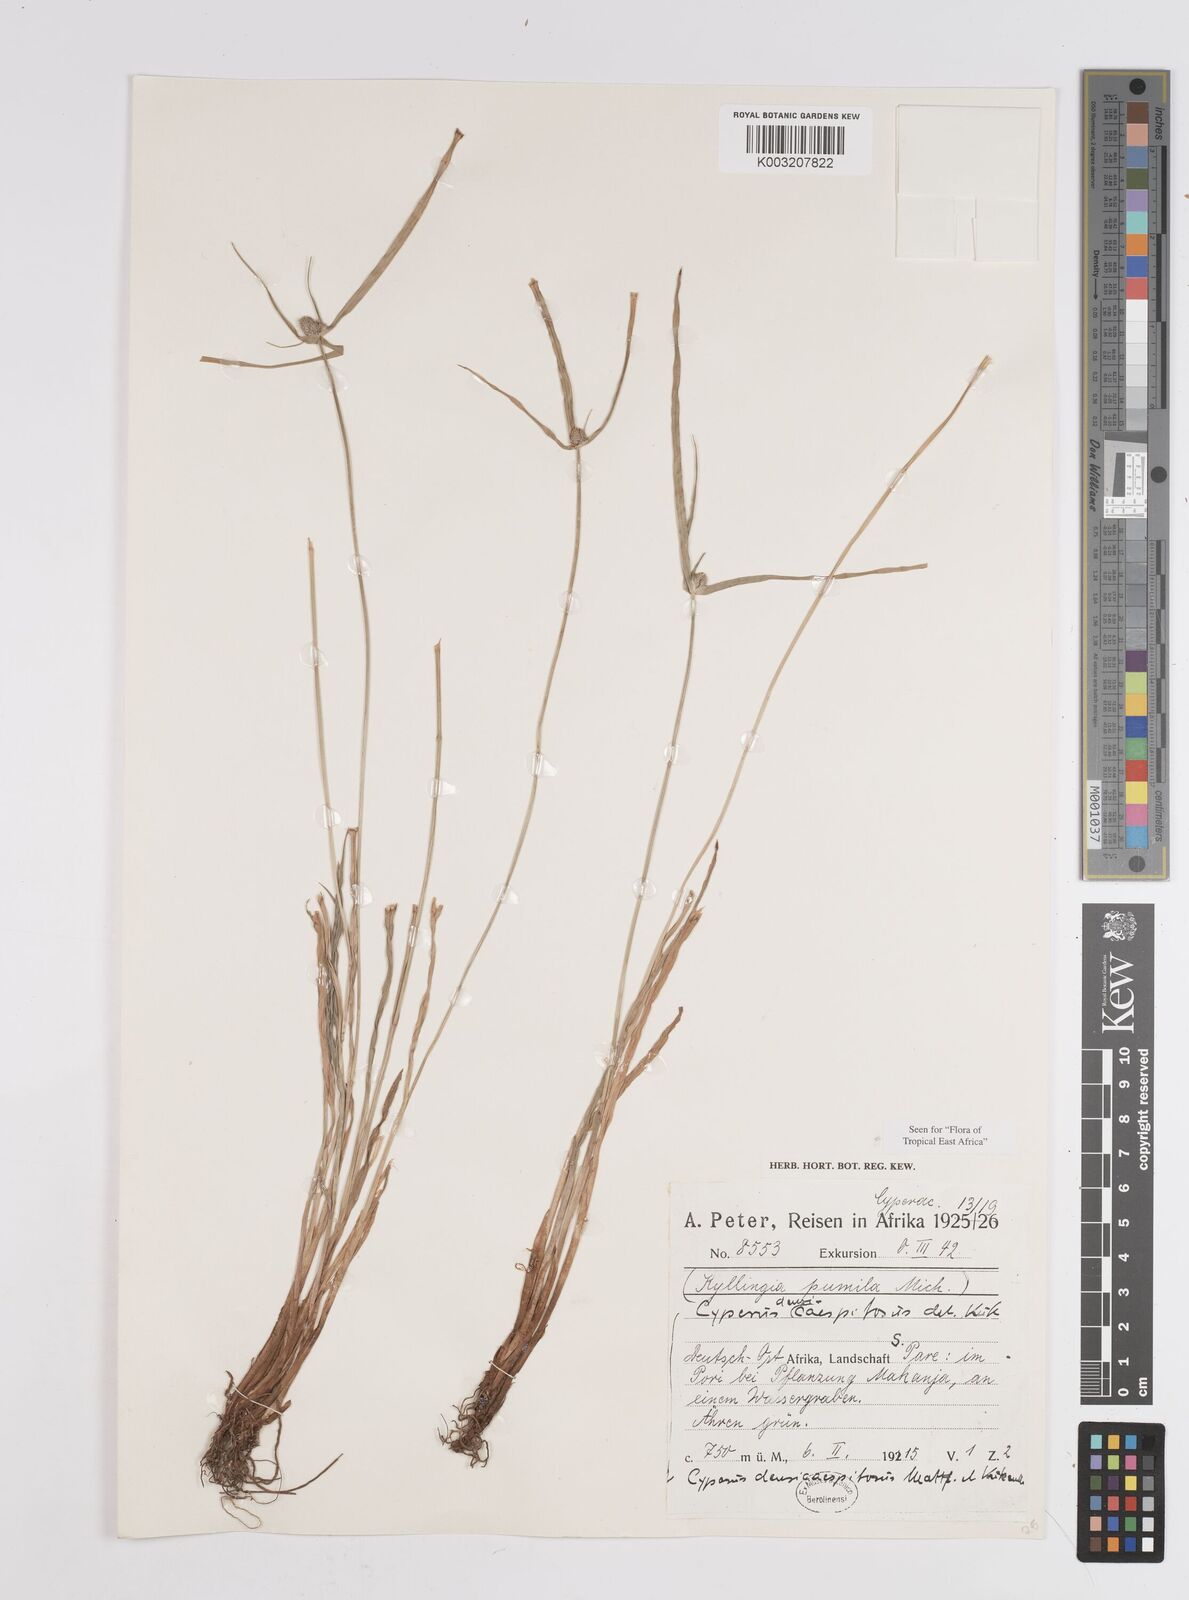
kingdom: Plantae
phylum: Tracheophyta
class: Liliopsida
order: Poales
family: Cyperaceae
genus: Cyperus
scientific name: Cyperus hortensis
